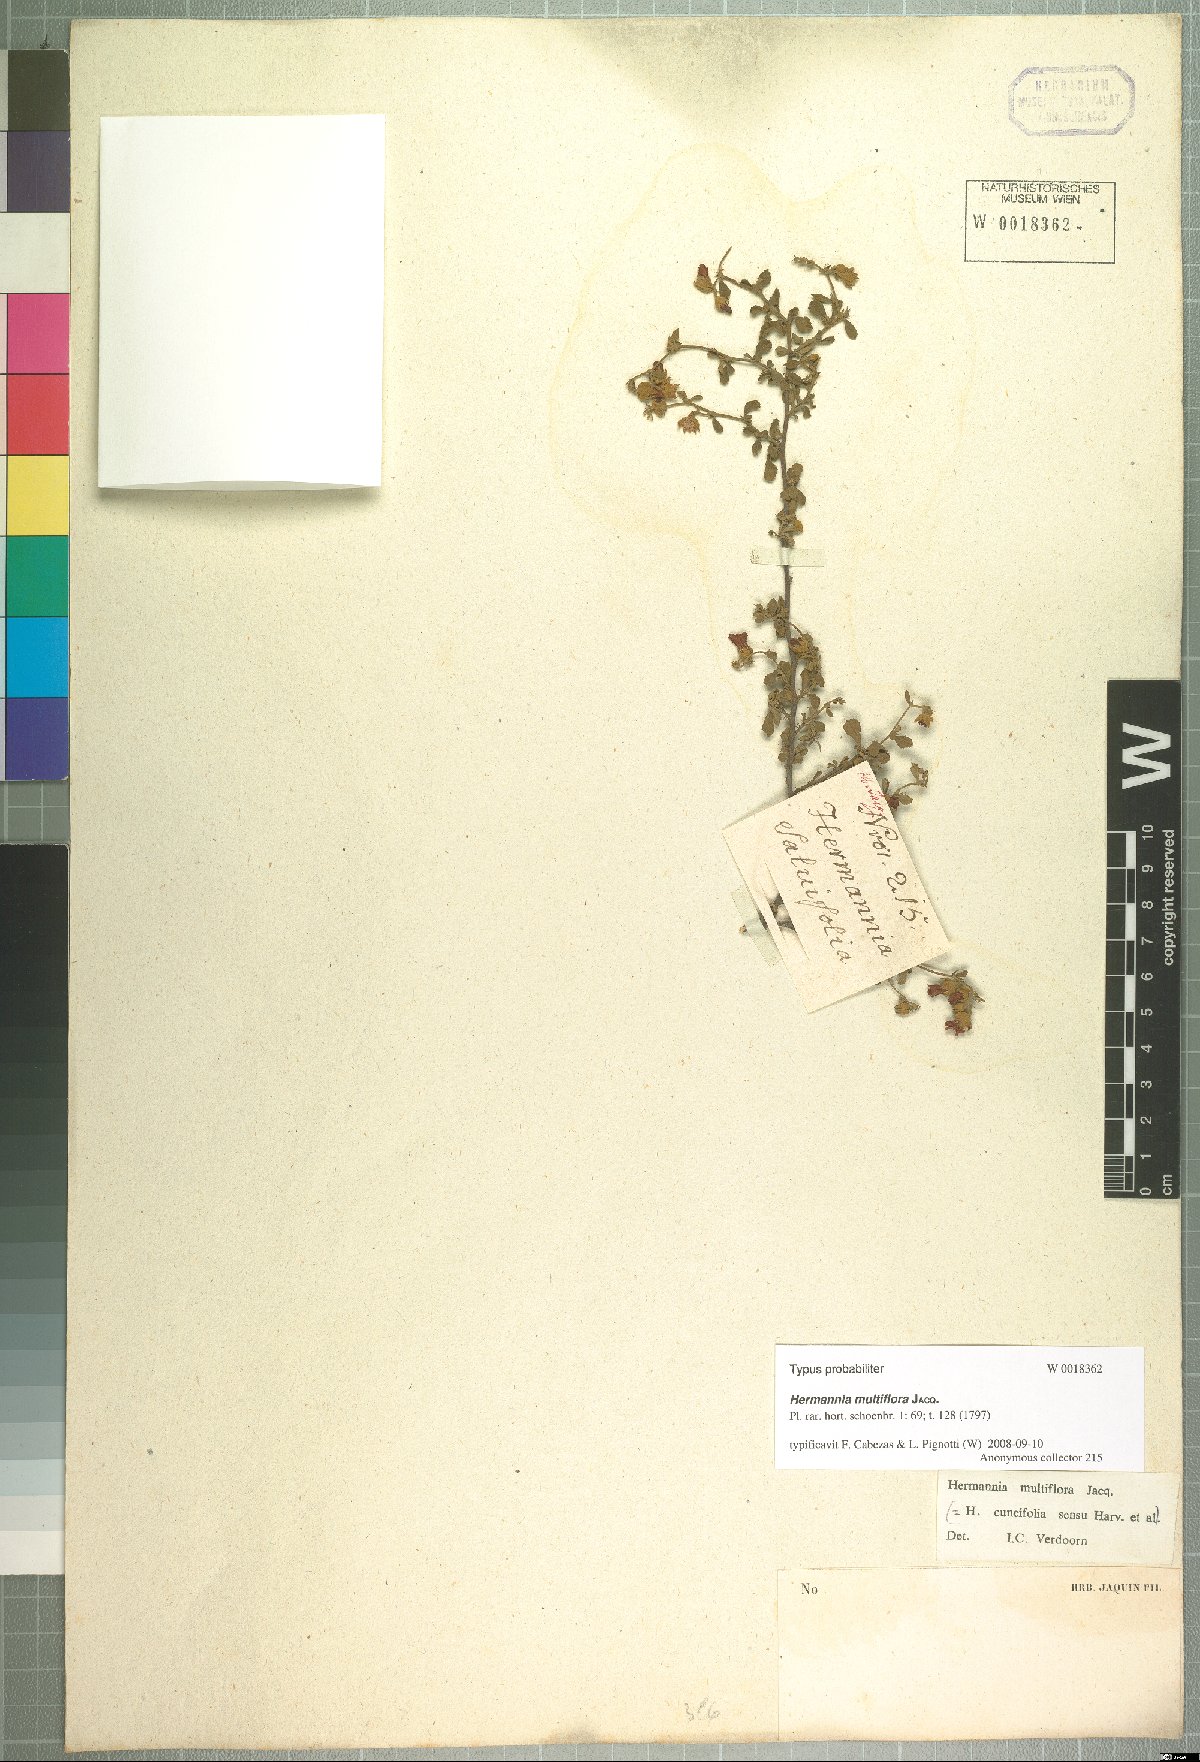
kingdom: Plantae
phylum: Tracheophyta
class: Magnoliopsida
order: Malvales
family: Malvaceae
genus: Hermannia
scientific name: Hermannia multiflora
